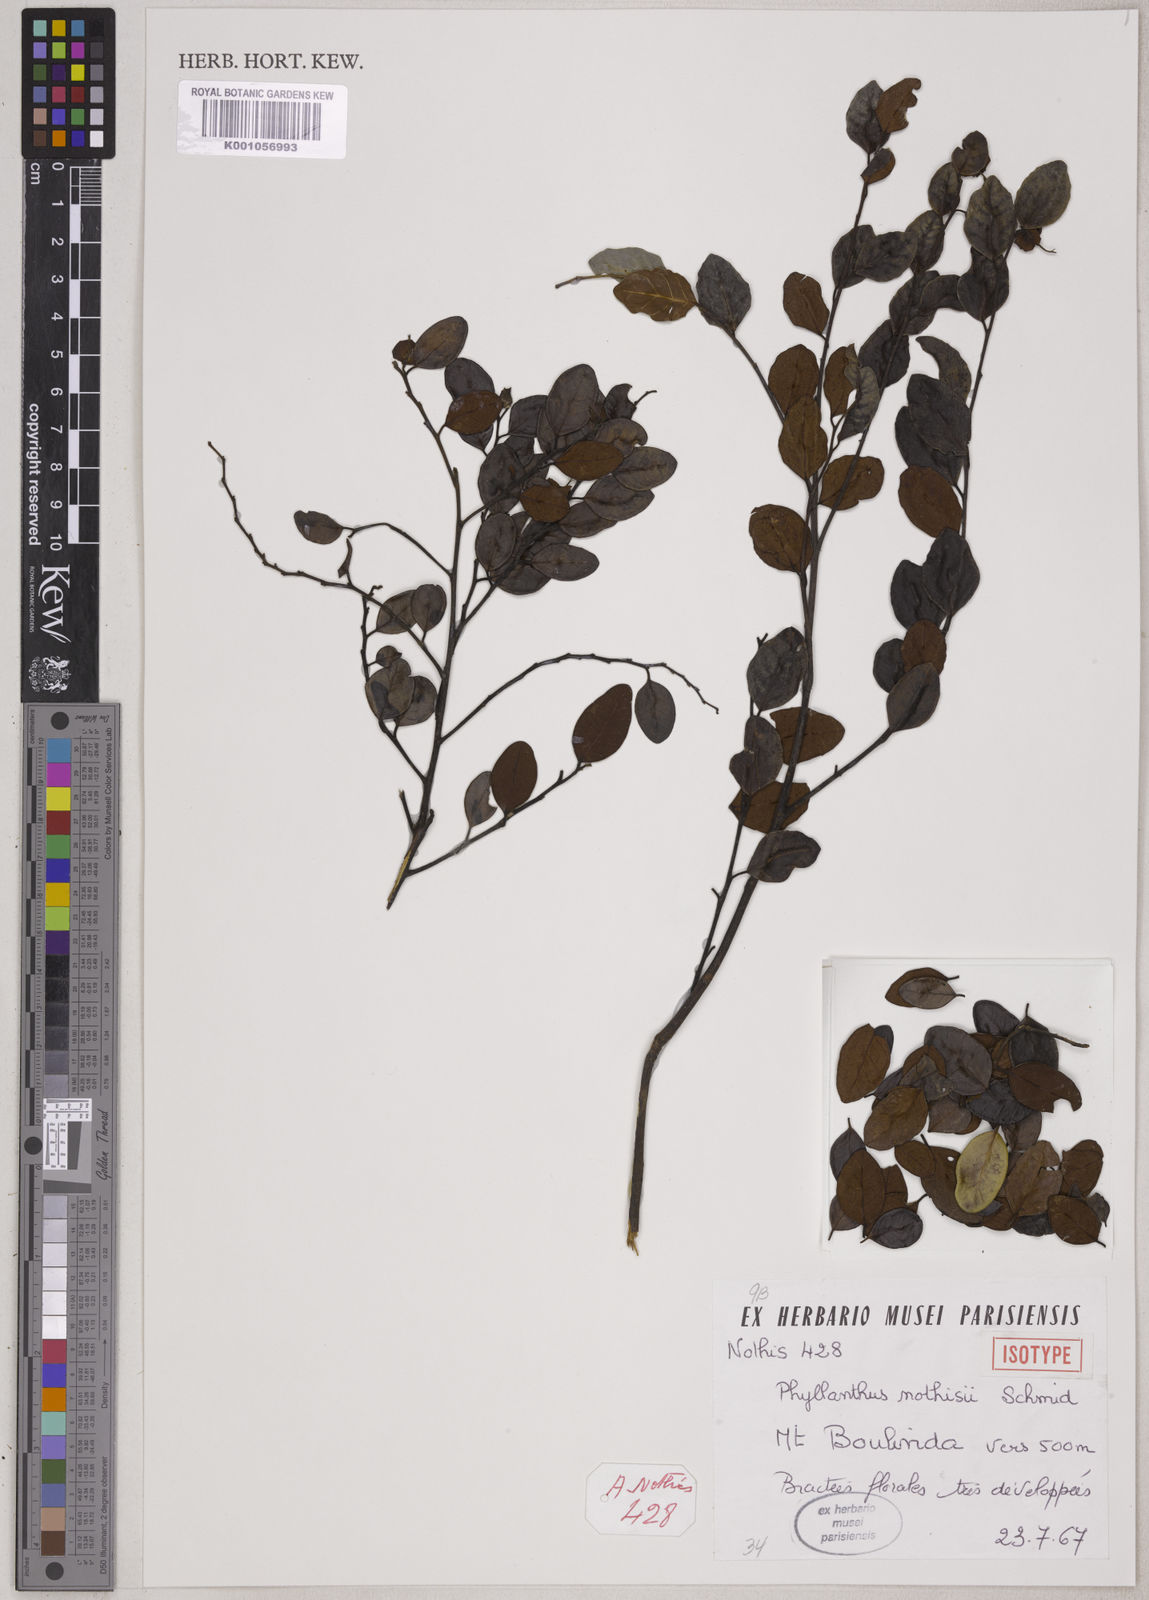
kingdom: Plantae
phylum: Tracheophyta
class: Magnoliopsida
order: Malpighiales
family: Phyllanthaceae
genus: Phyllanthus
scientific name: Phyllanthus nothisii
